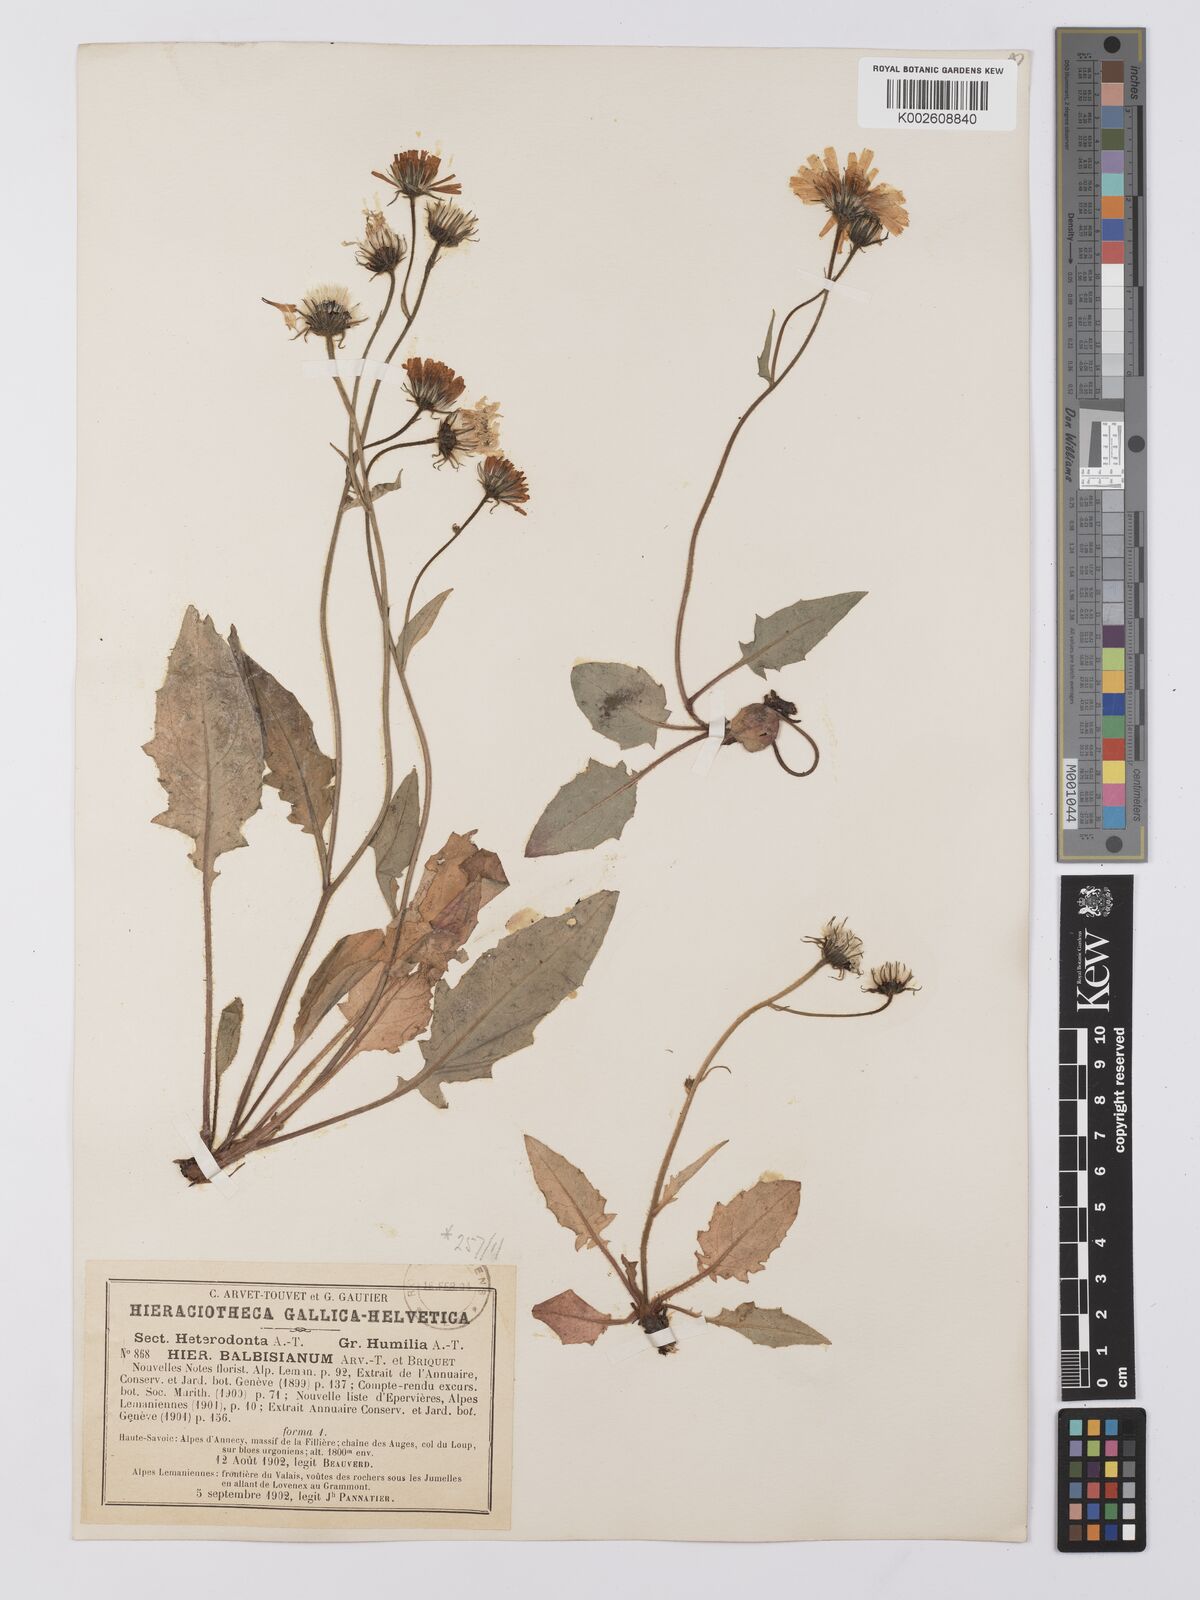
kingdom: Plantae
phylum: Tracheophyta
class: Magnoliopsida
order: Asterales
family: Asteraceae
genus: Hieracium
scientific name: Hieracium
